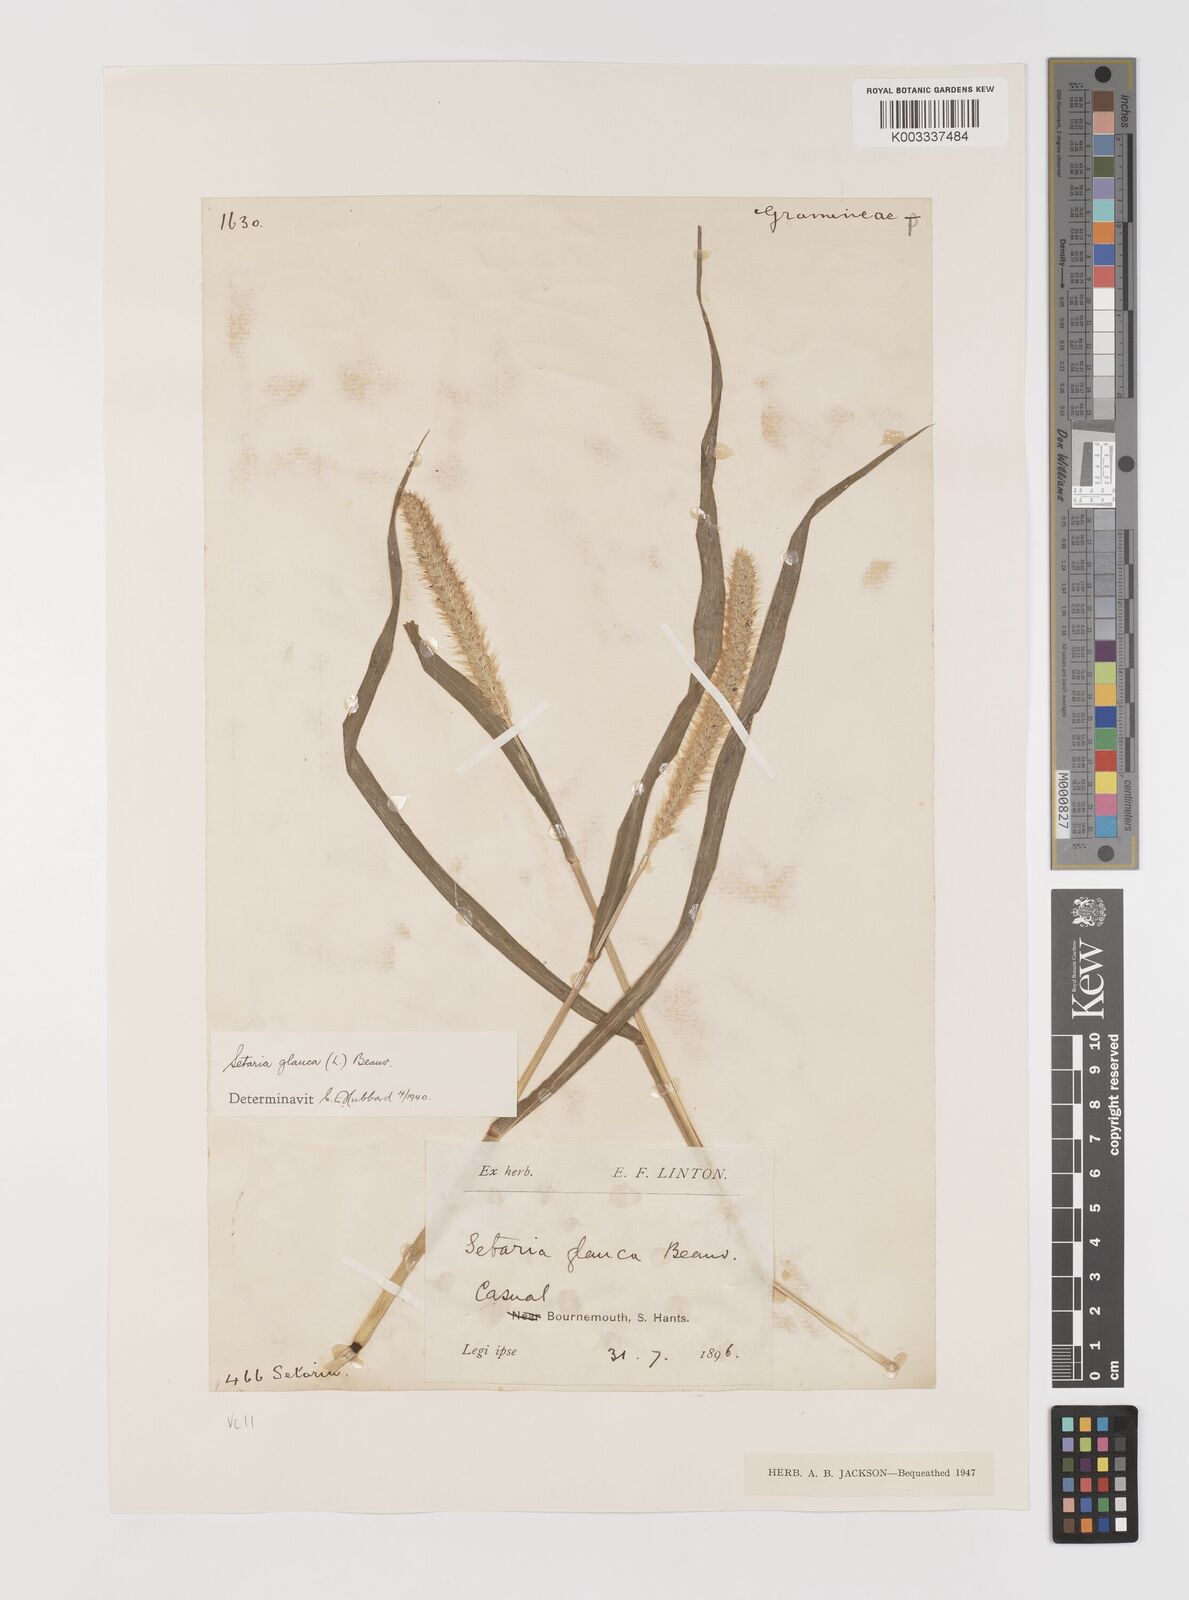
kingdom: Plantae
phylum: Tracheophyta
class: Liliopsida
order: Poales
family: Poaceae
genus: Setaria
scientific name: Setaria pumila
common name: Yellow bristle-grass
